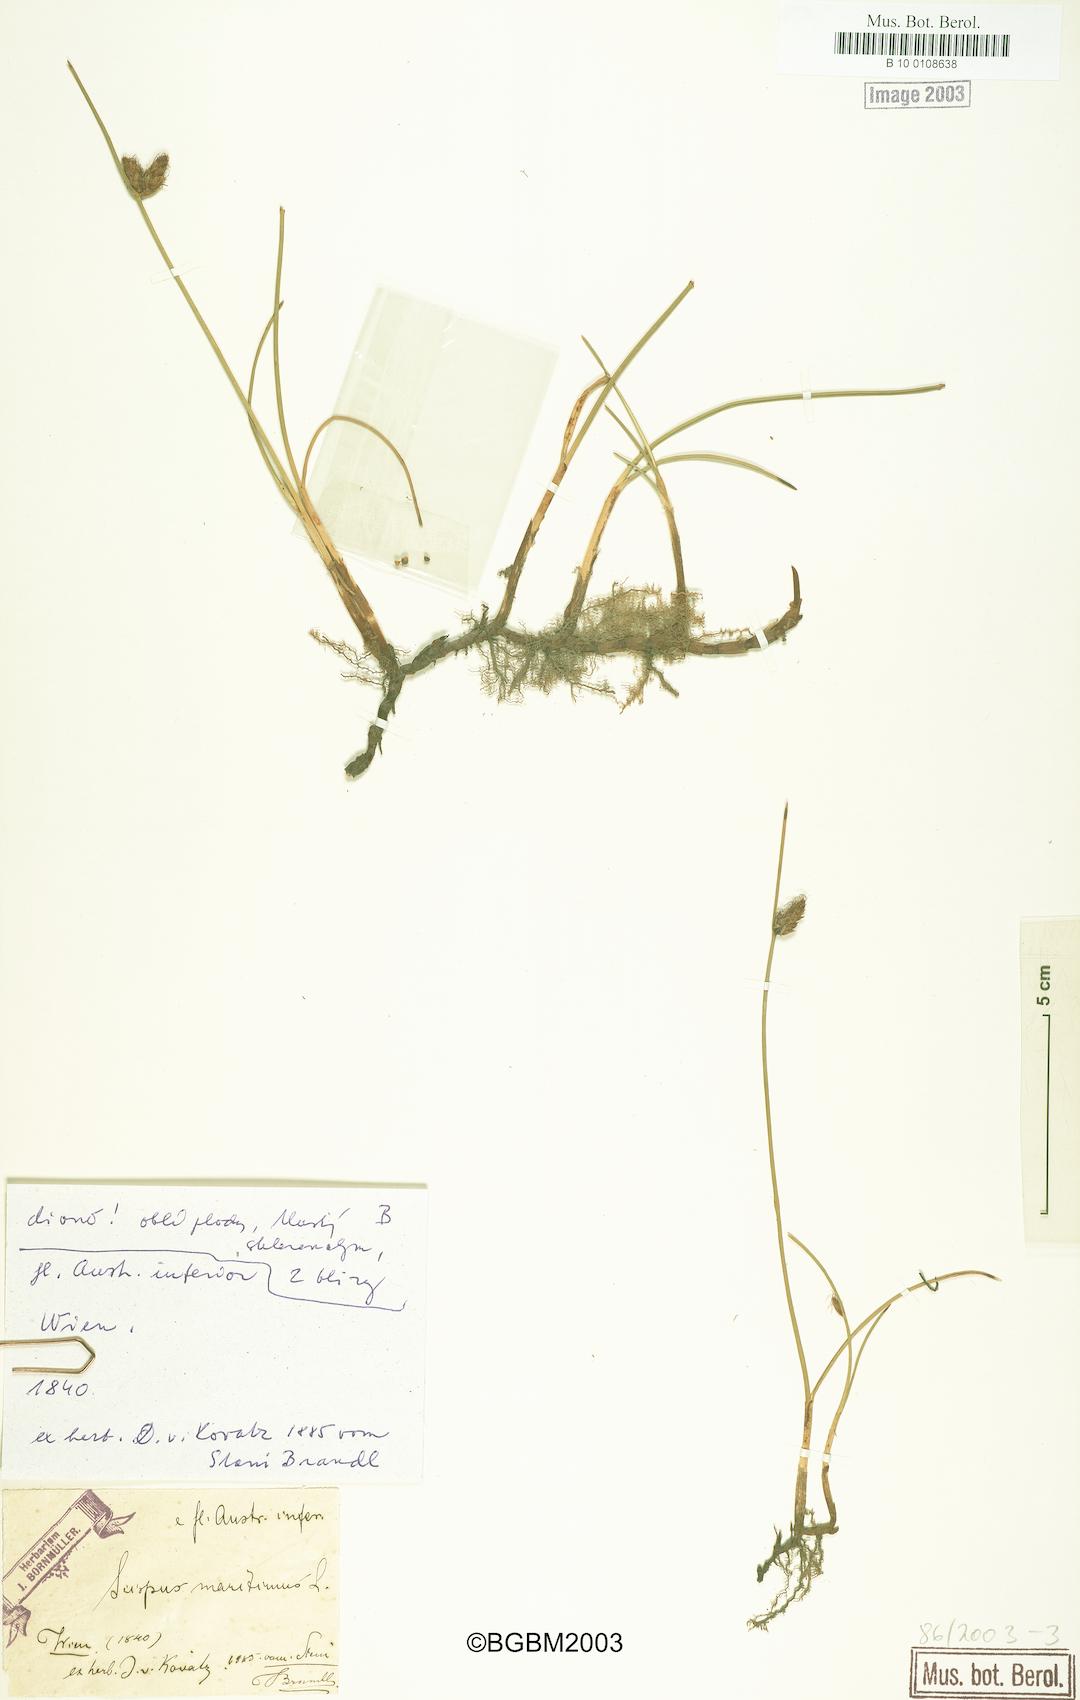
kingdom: Plantae
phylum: Tracheophyta
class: Liliopsida
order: Poales
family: Cyperaceae
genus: Bolboschoenus
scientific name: Bolboschoenus maritimus
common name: Sea club-rush
